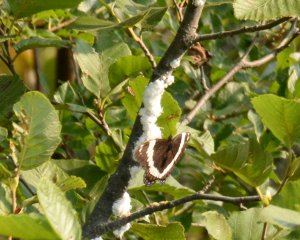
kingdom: Animalia
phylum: Arthropoda
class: Insecta
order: Lepidoptera
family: Nymphalidae
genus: Limenitis
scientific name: Limenitis arthemis
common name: Red-spotted Admiral
